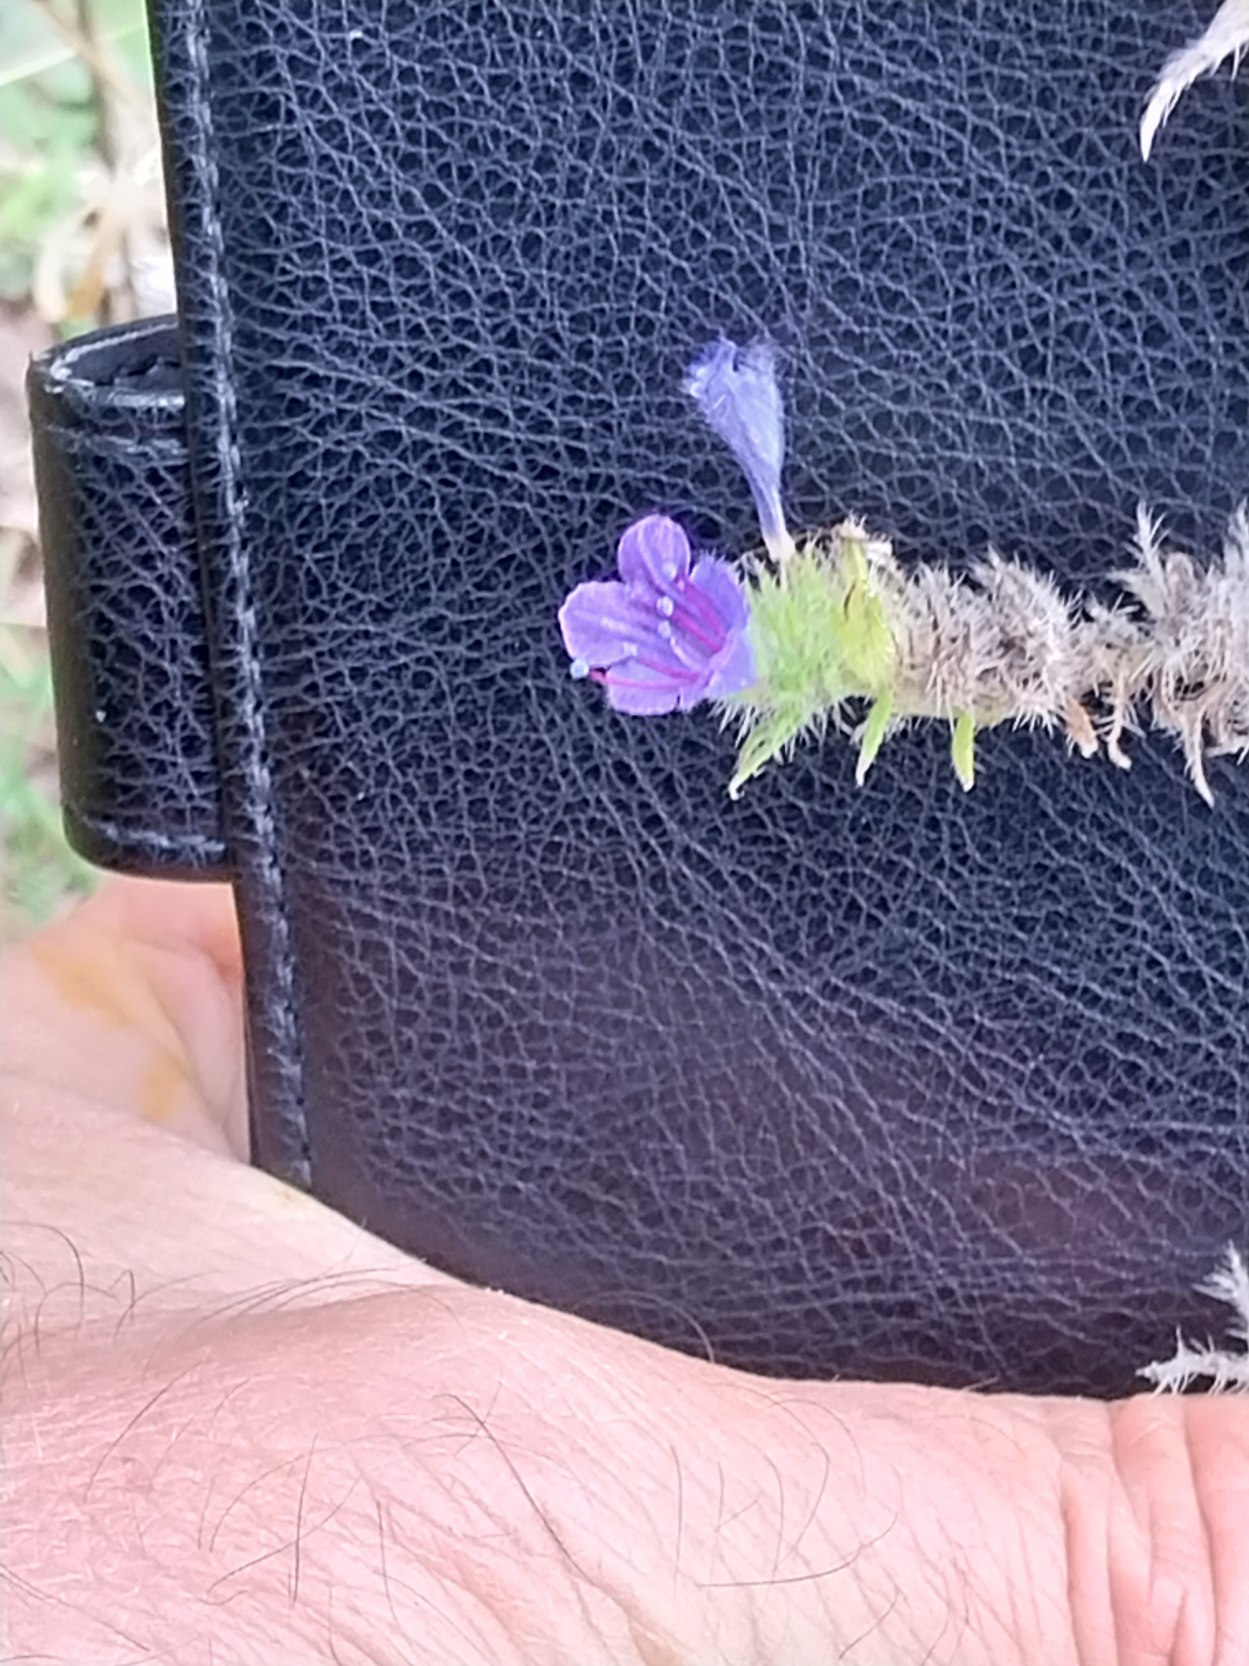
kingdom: Plantae
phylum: Tracheophyta
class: Magnoliopsida
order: Boraginales
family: Boraginaceae
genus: Echium
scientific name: Echium vulgare
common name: Slangehoved
